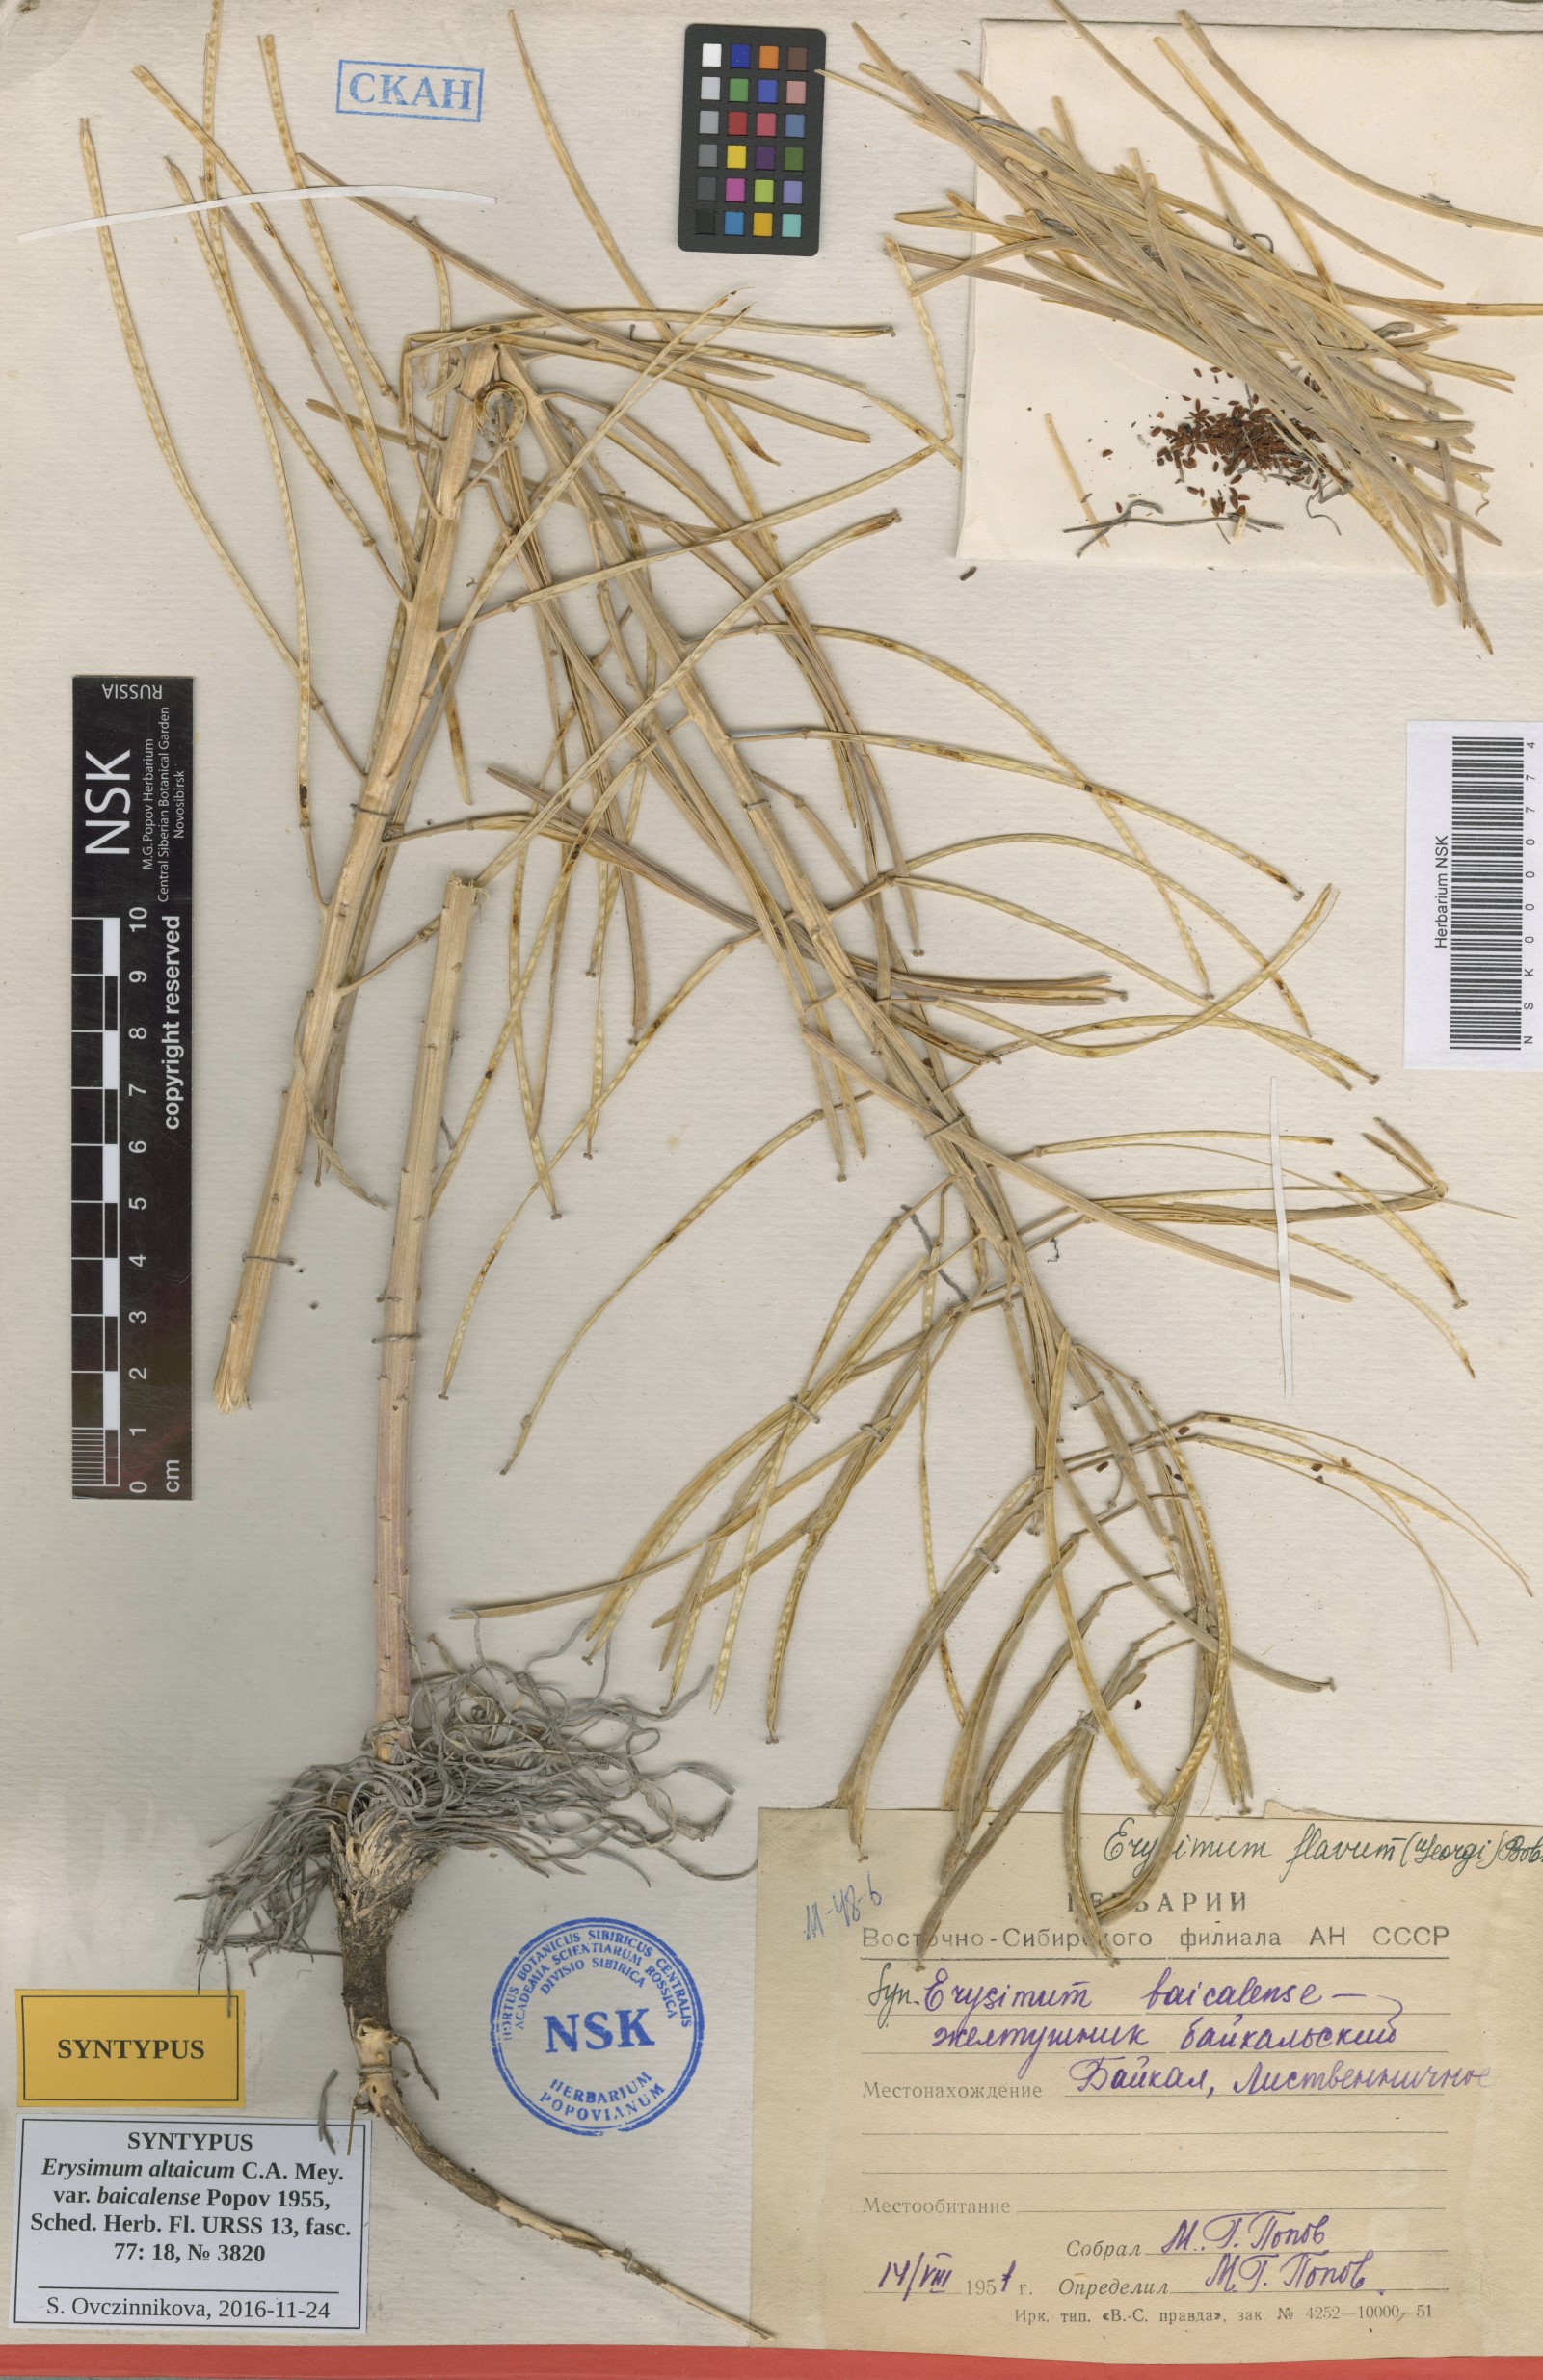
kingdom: Plantae
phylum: Tracheophyta
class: Magnoliopsida
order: Brassicales
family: Brassicaceae
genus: Erysimum
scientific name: Erysimum flavum
